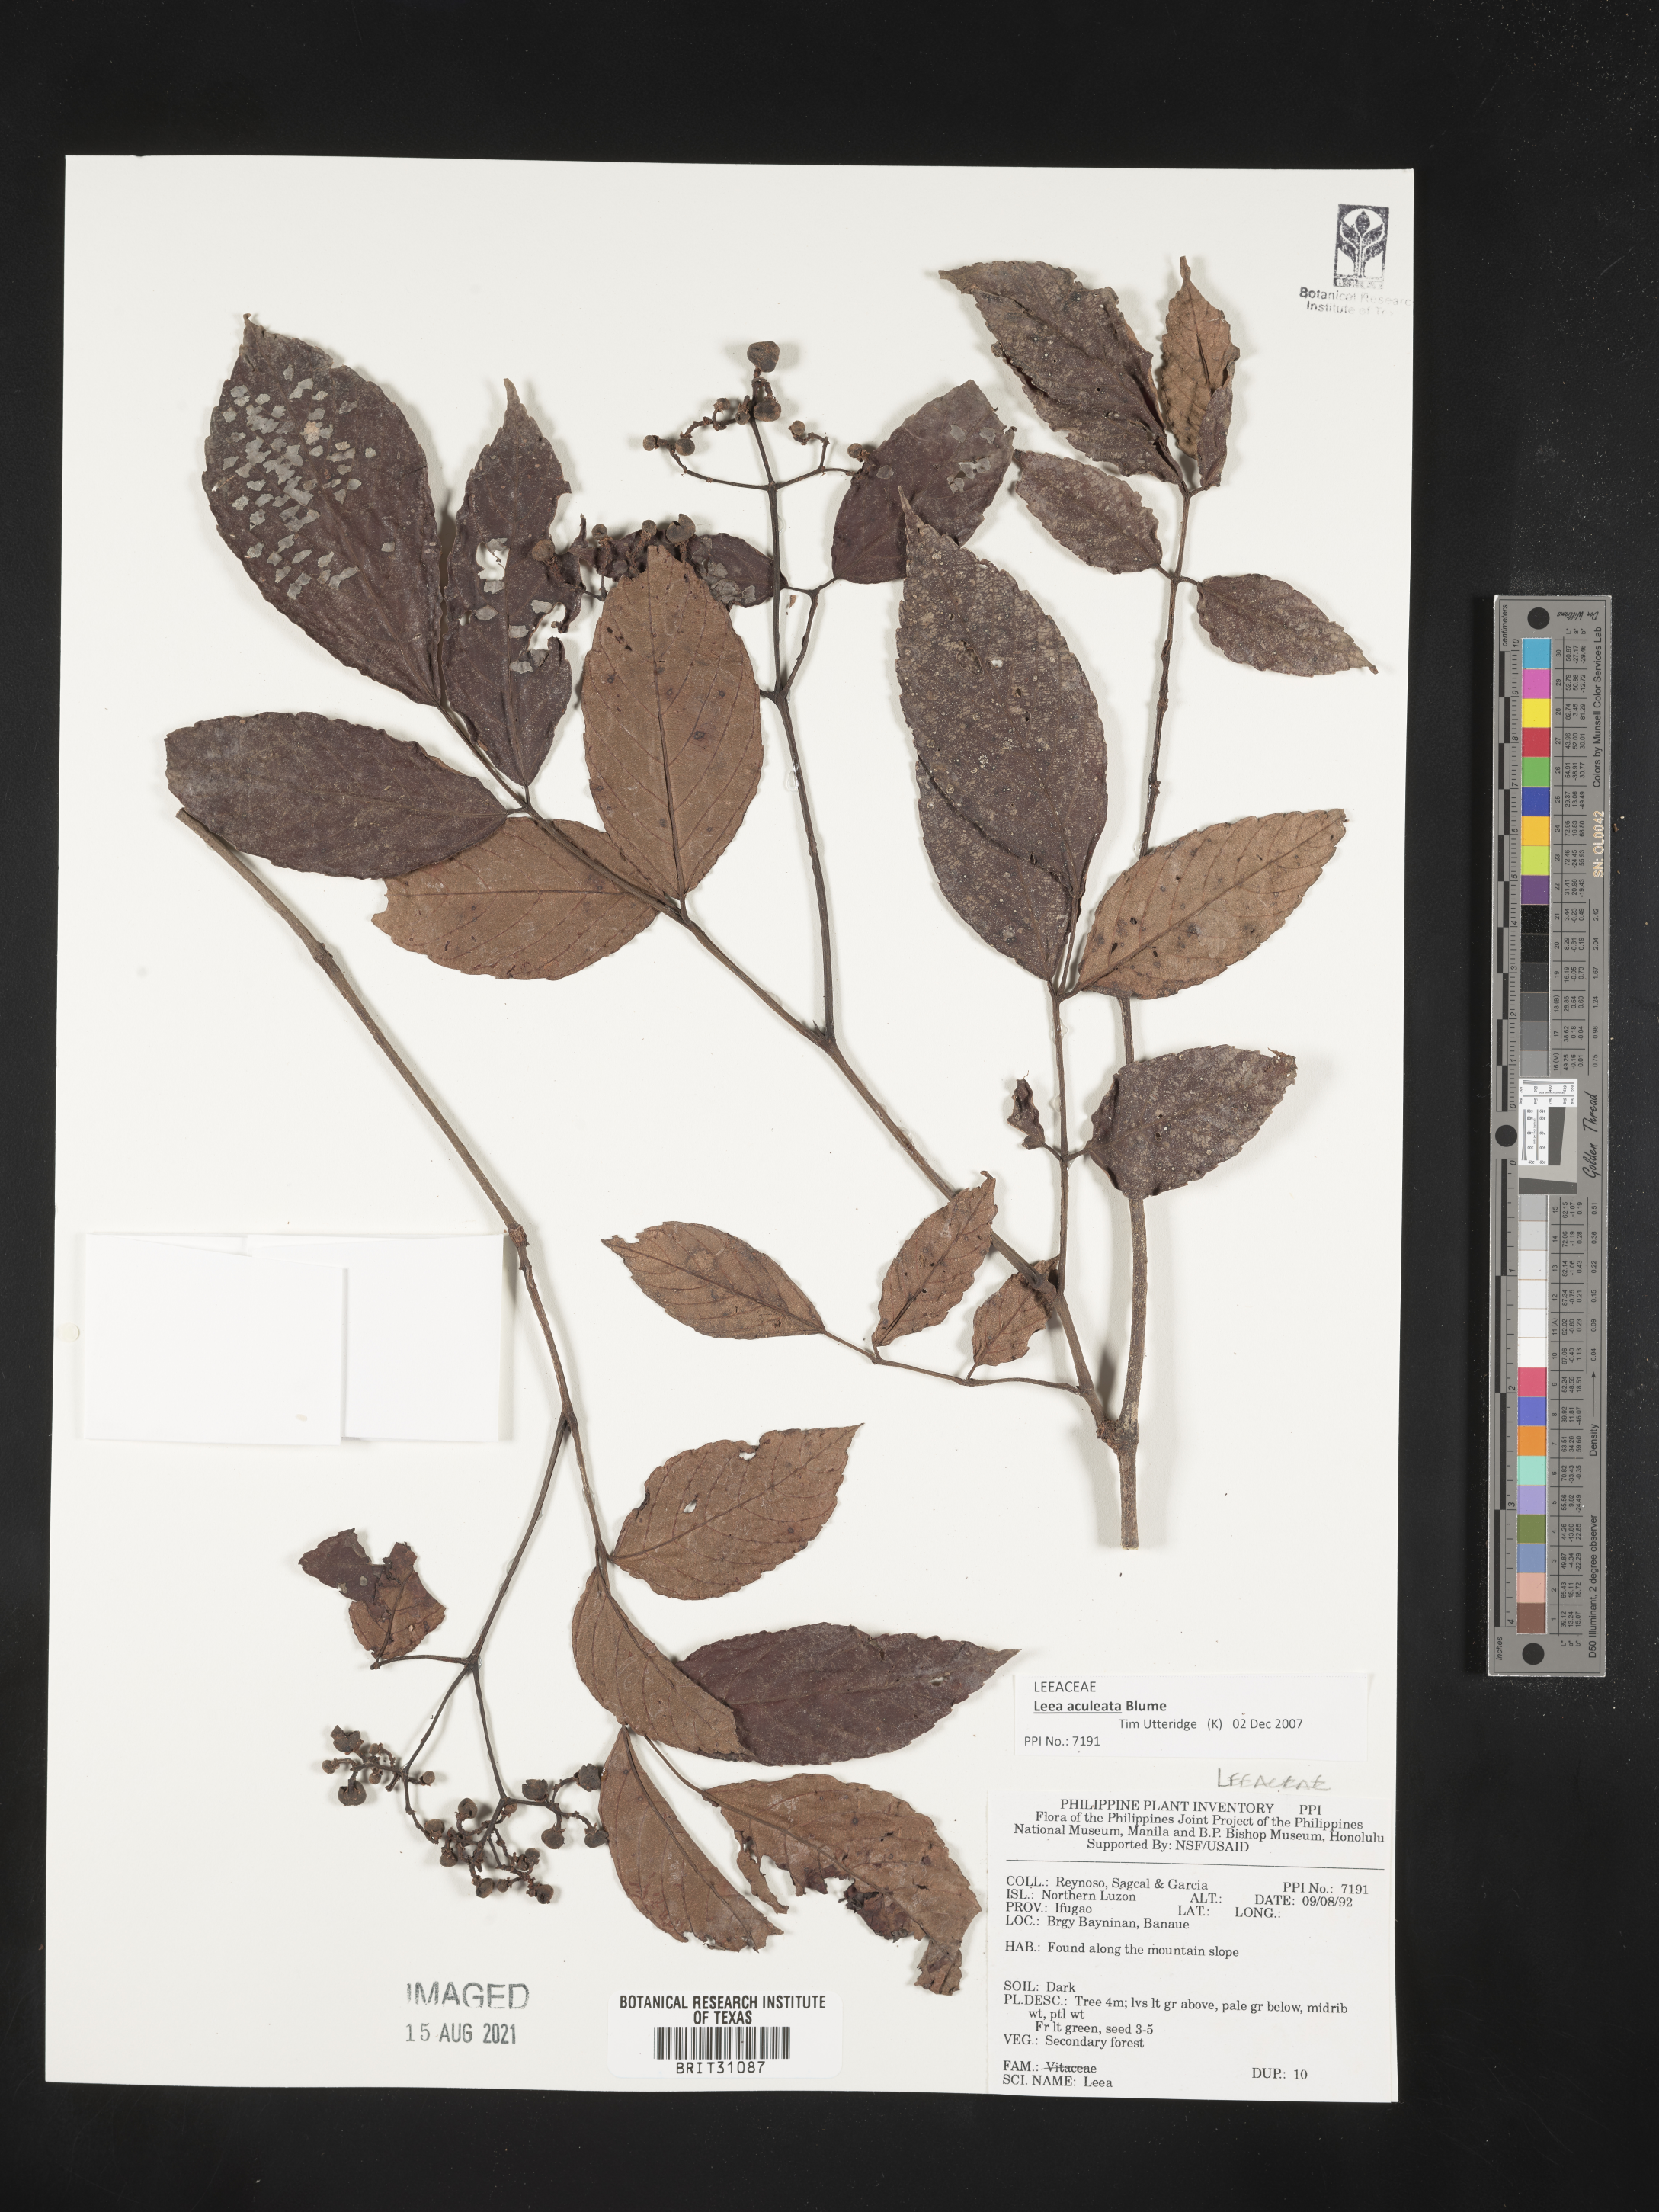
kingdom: Plantae
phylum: Tracheophyta
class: Magnoliopsida
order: Vitales
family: Vitaceae
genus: Leea
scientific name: Leea
